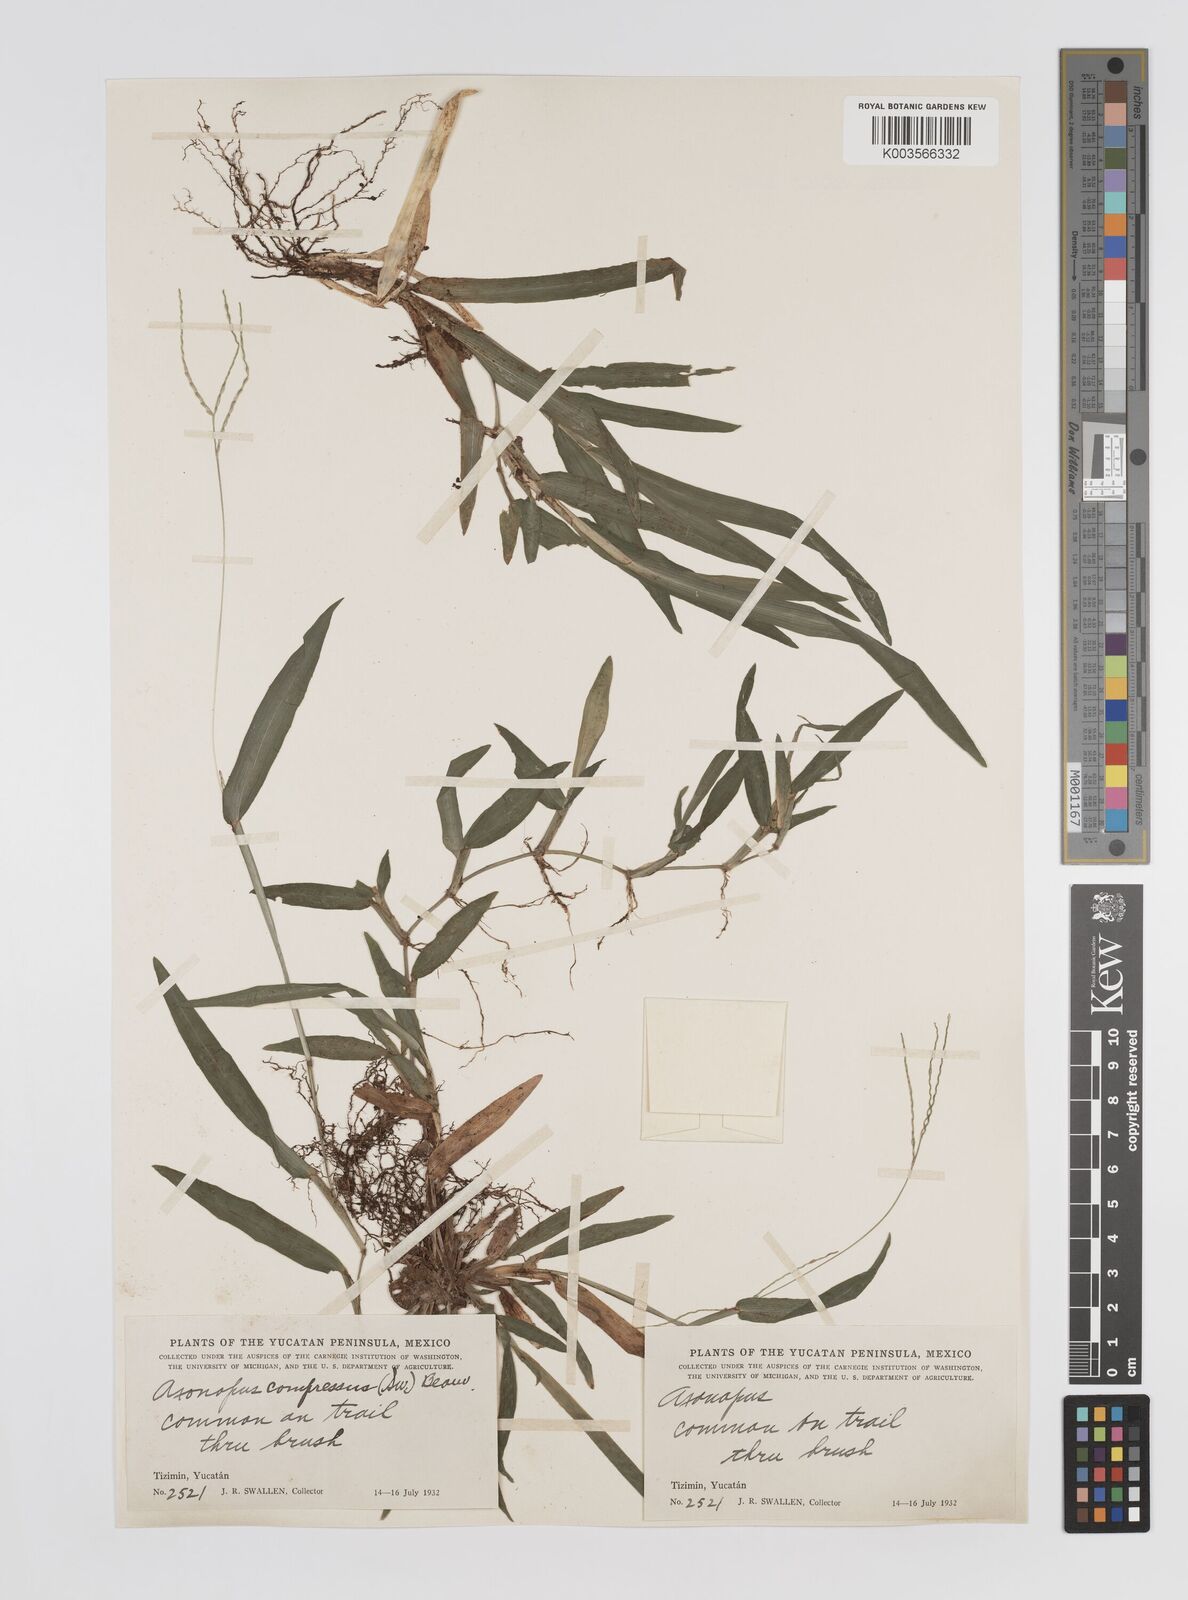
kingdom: Plantae
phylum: Tracheophyta
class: Liliopsida
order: Poales
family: Poaceae
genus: Axonopus
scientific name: Axonopus compressus
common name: American carpet grass
